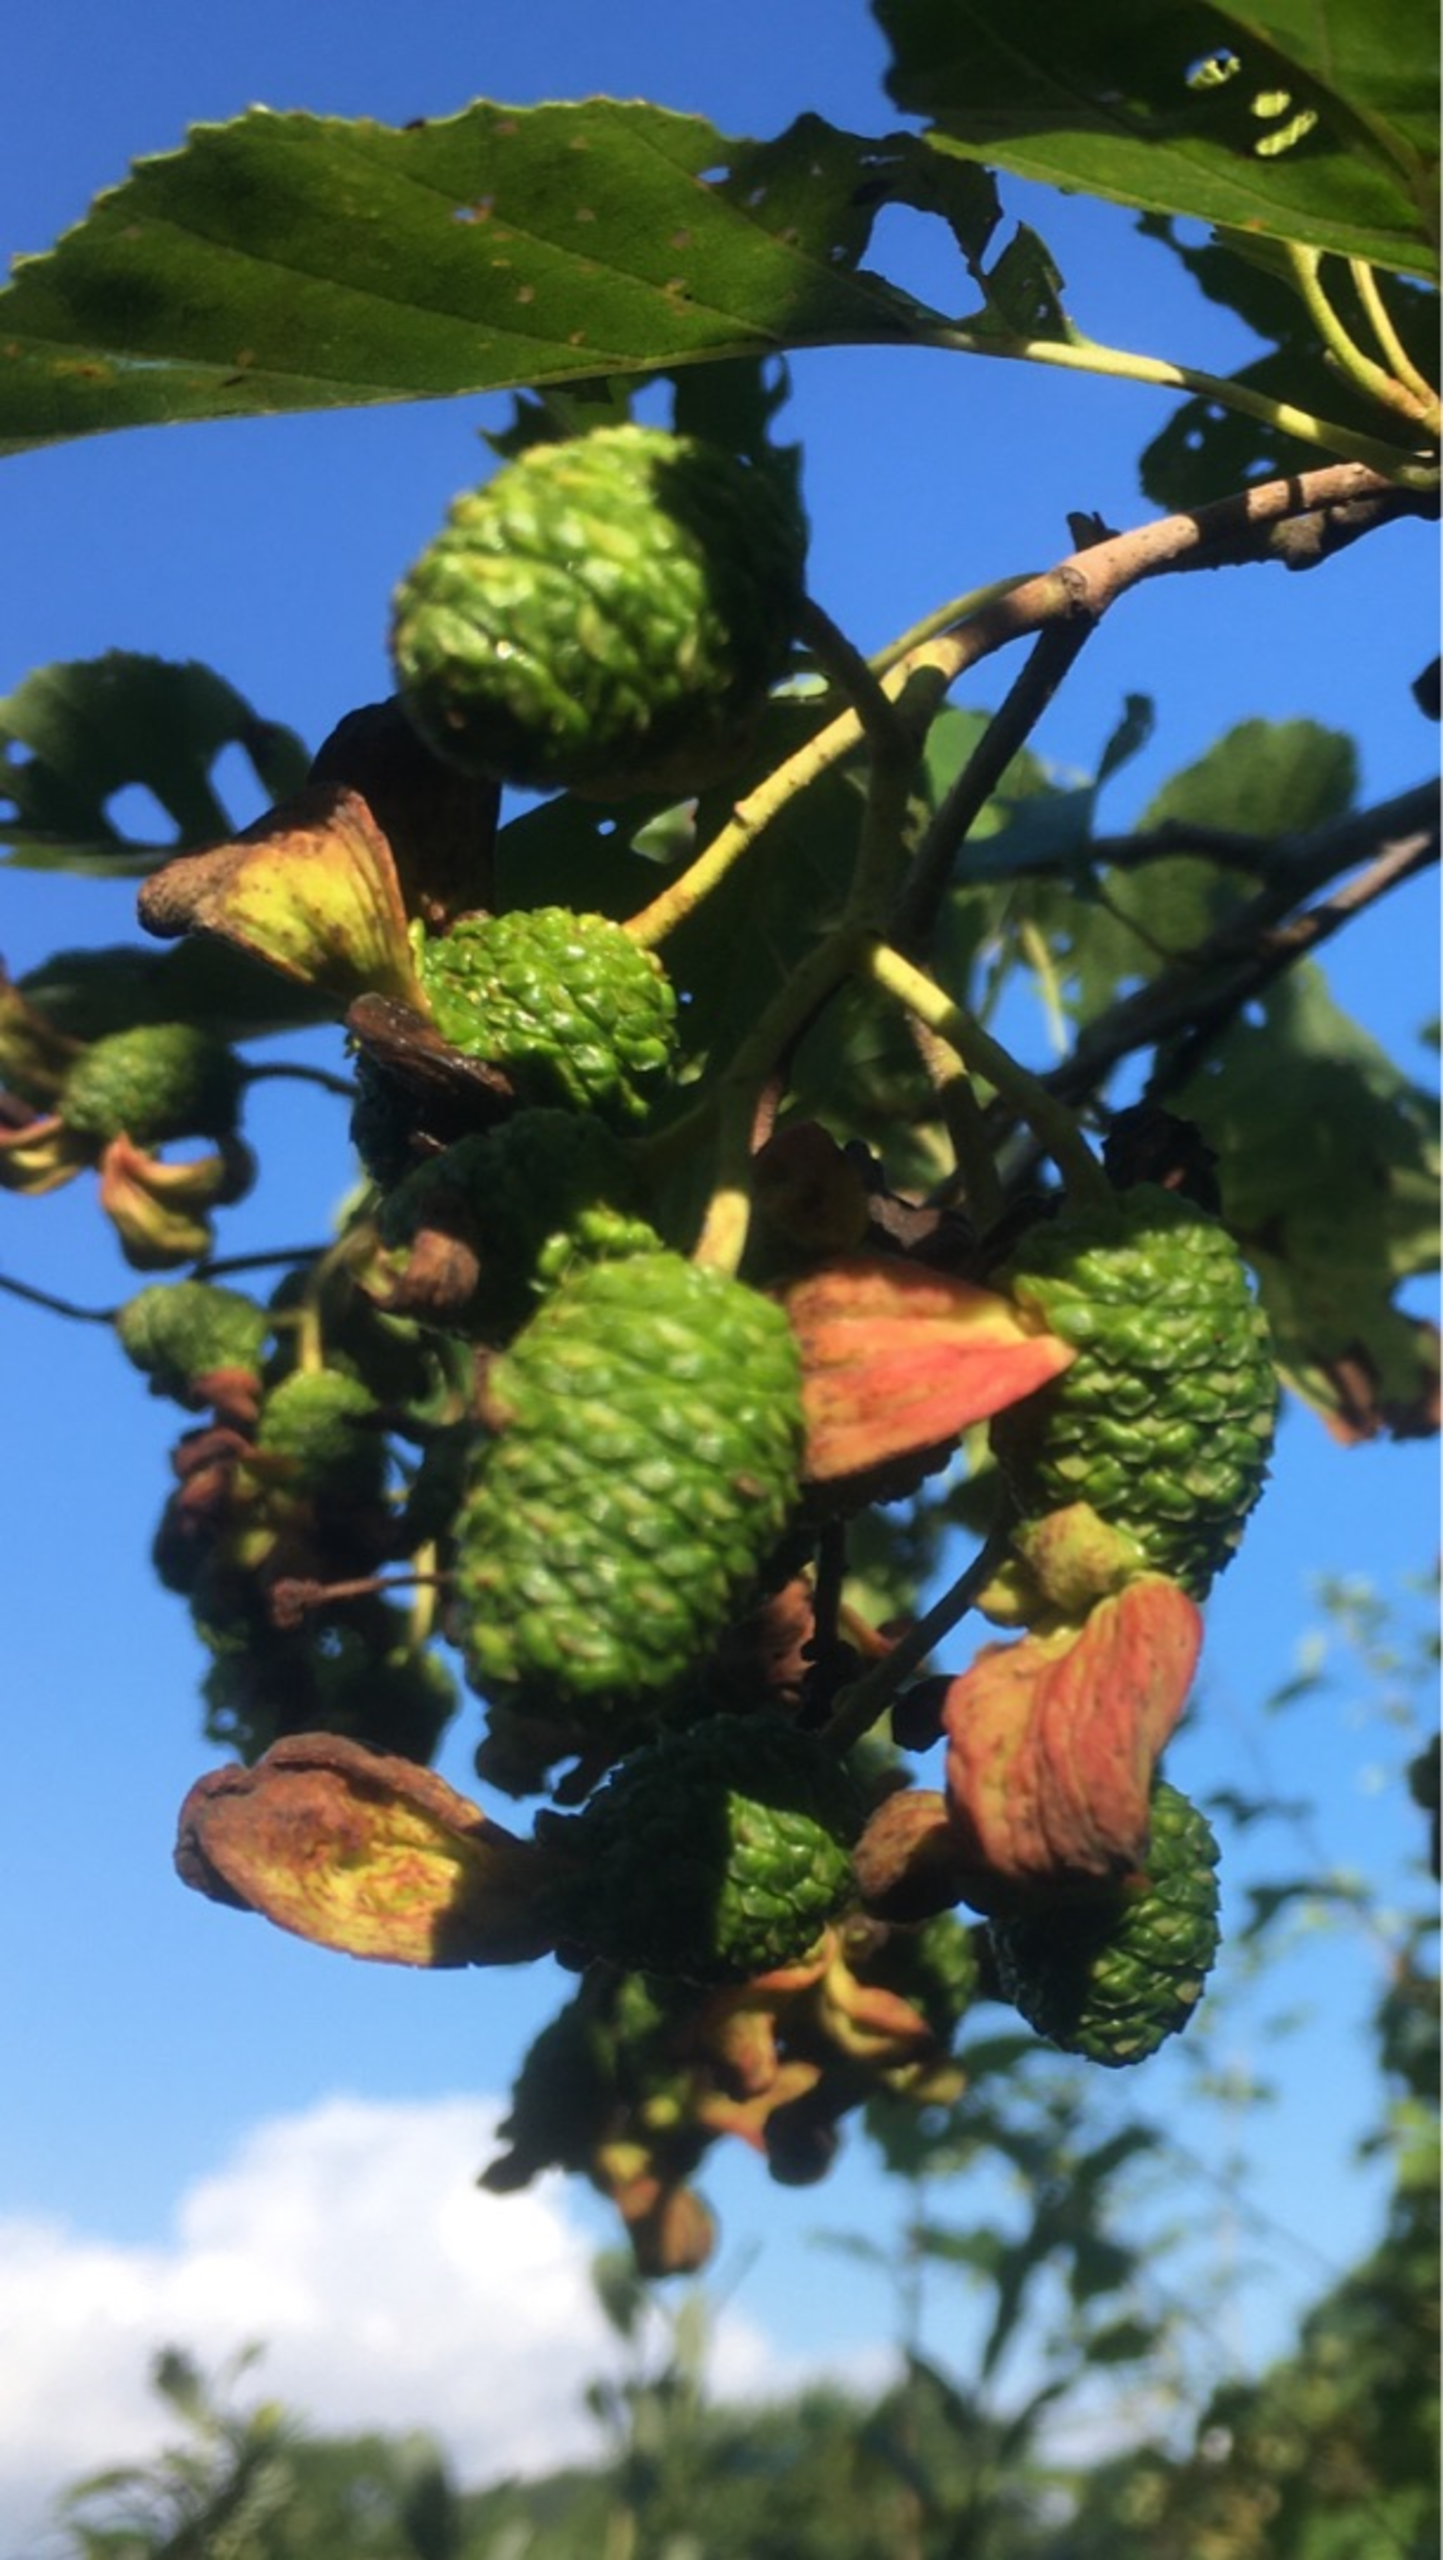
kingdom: Fungi
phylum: Ascomycota
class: Taphrinomycetes
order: Taphrinales
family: Taphrinaceae
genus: Taphrina
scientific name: Taphrina alni
